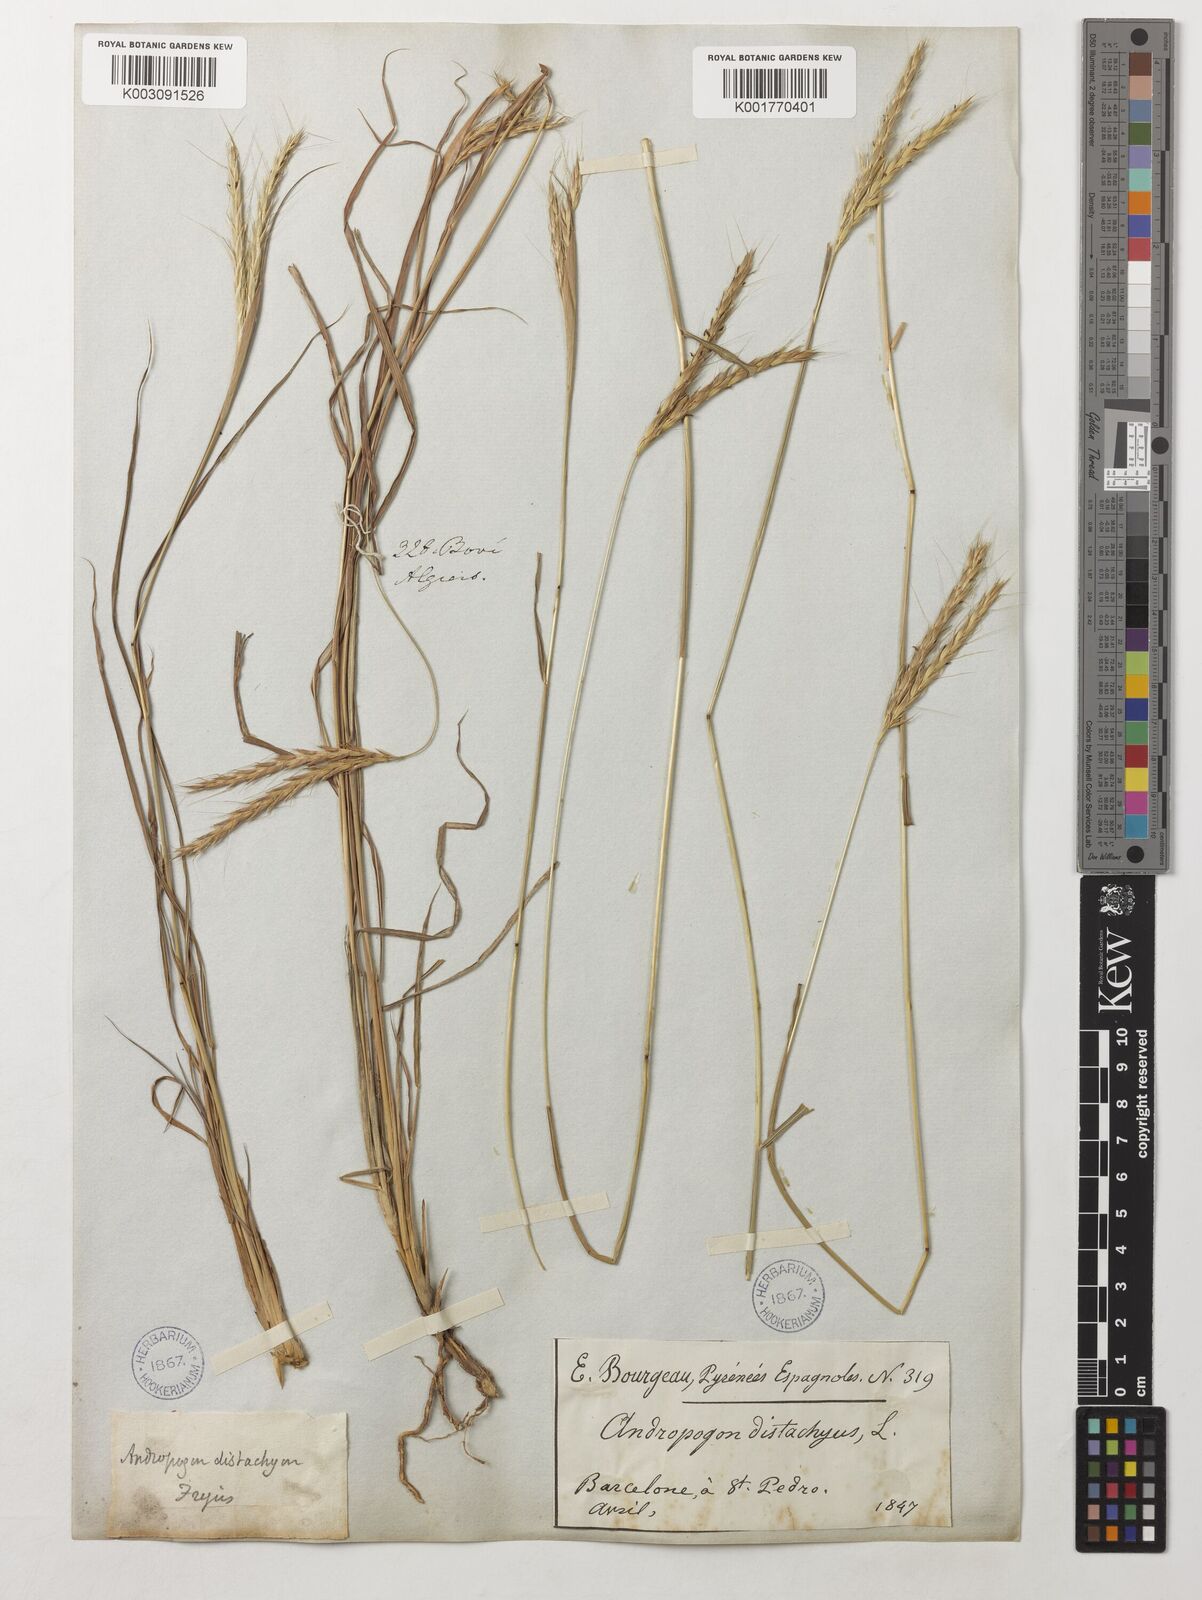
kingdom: Plantae
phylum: Tracheophyta
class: Liliopsida
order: Poales
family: Poaceae
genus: Andropogon
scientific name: Andropogon distachyos
